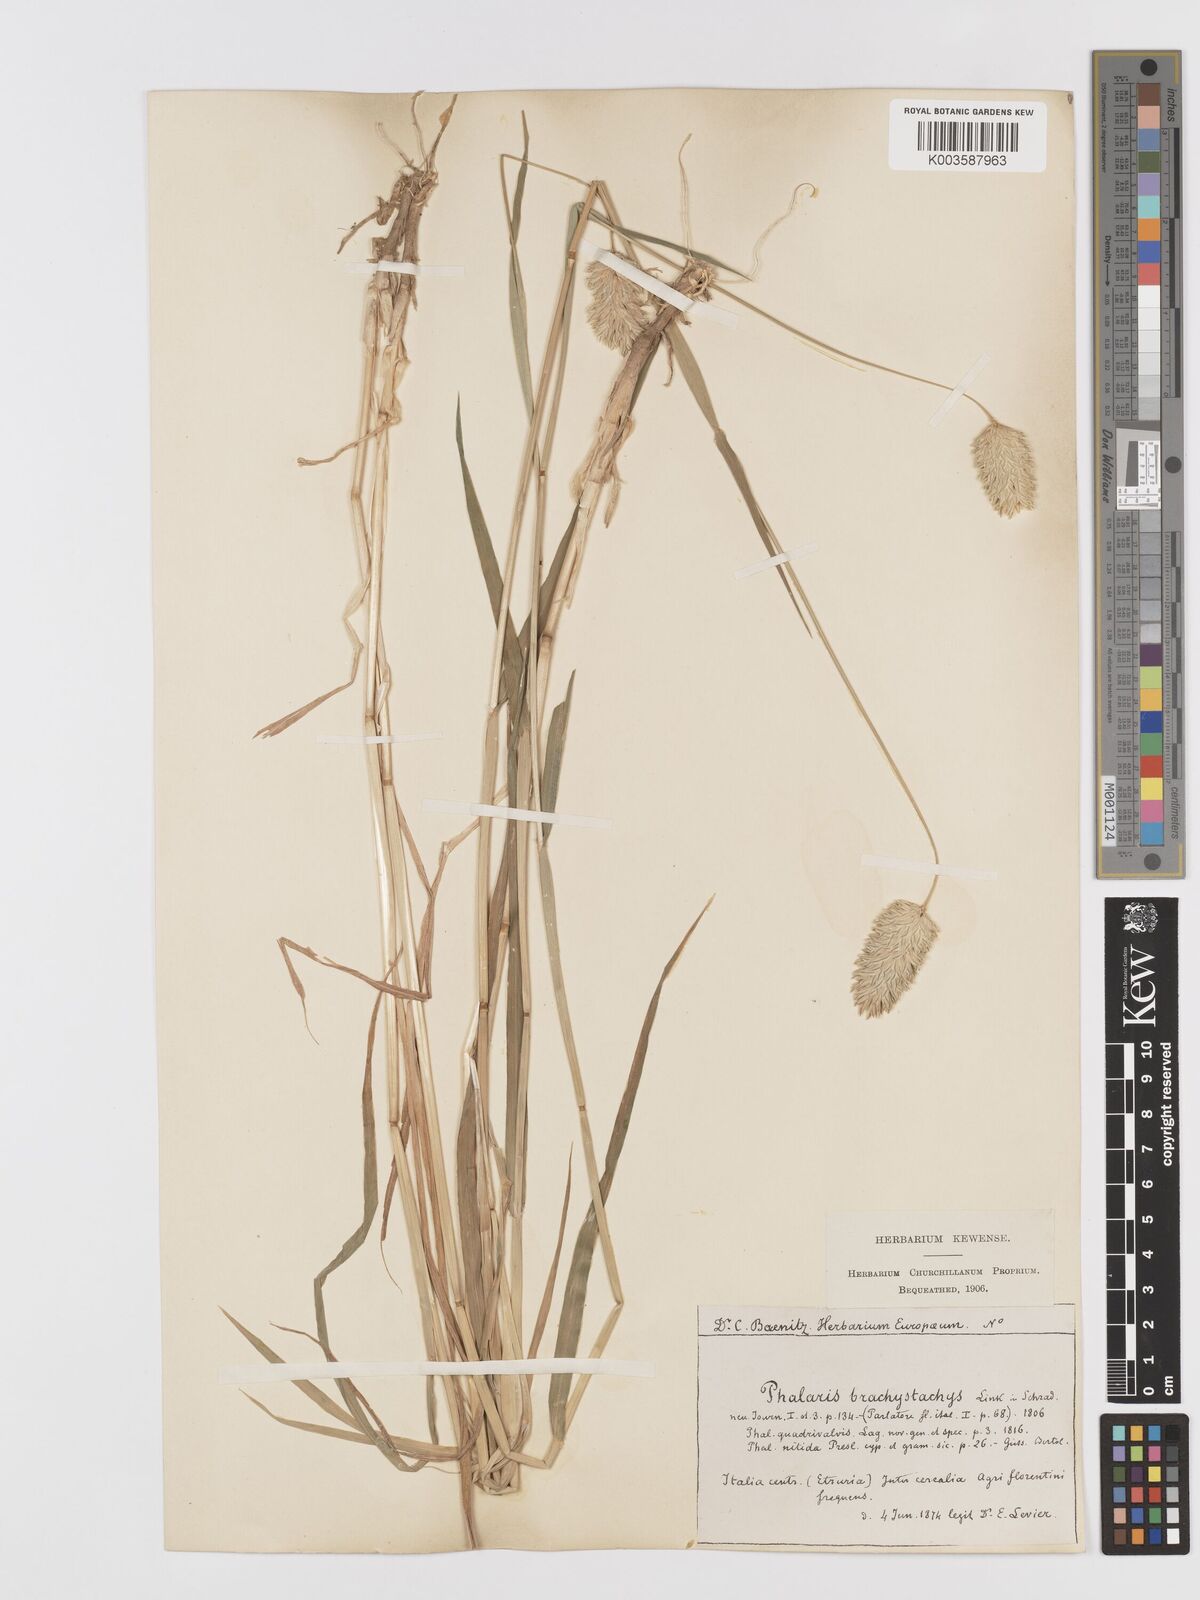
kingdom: Plantae
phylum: Tracheophyta
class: Liliopsida
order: Poales
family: Poaceae
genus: Phalaris
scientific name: Phalaris brachystachys
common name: Confused canary-grass
